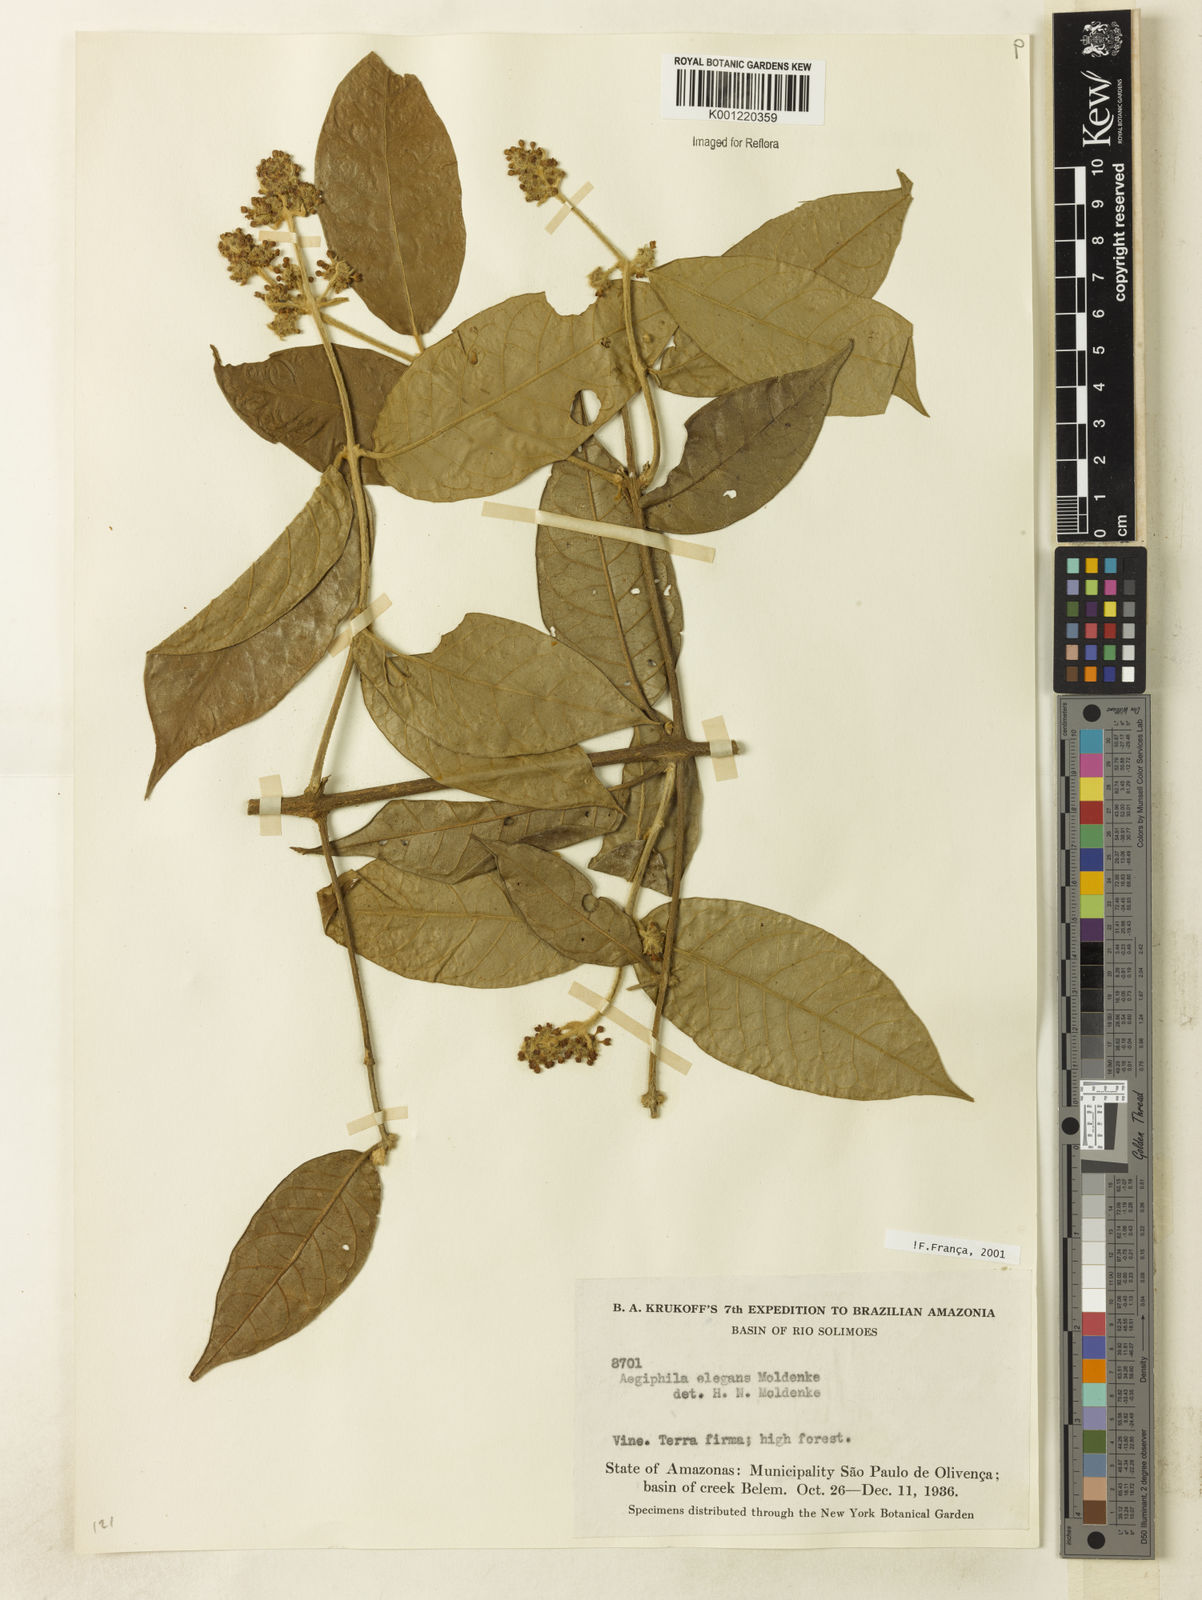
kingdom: Plantae
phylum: Tracheophyta
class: Magnoliopsida
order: Lamiales
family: Lamiaceae
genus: Aegiphila
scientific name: Aegiphila elegans
